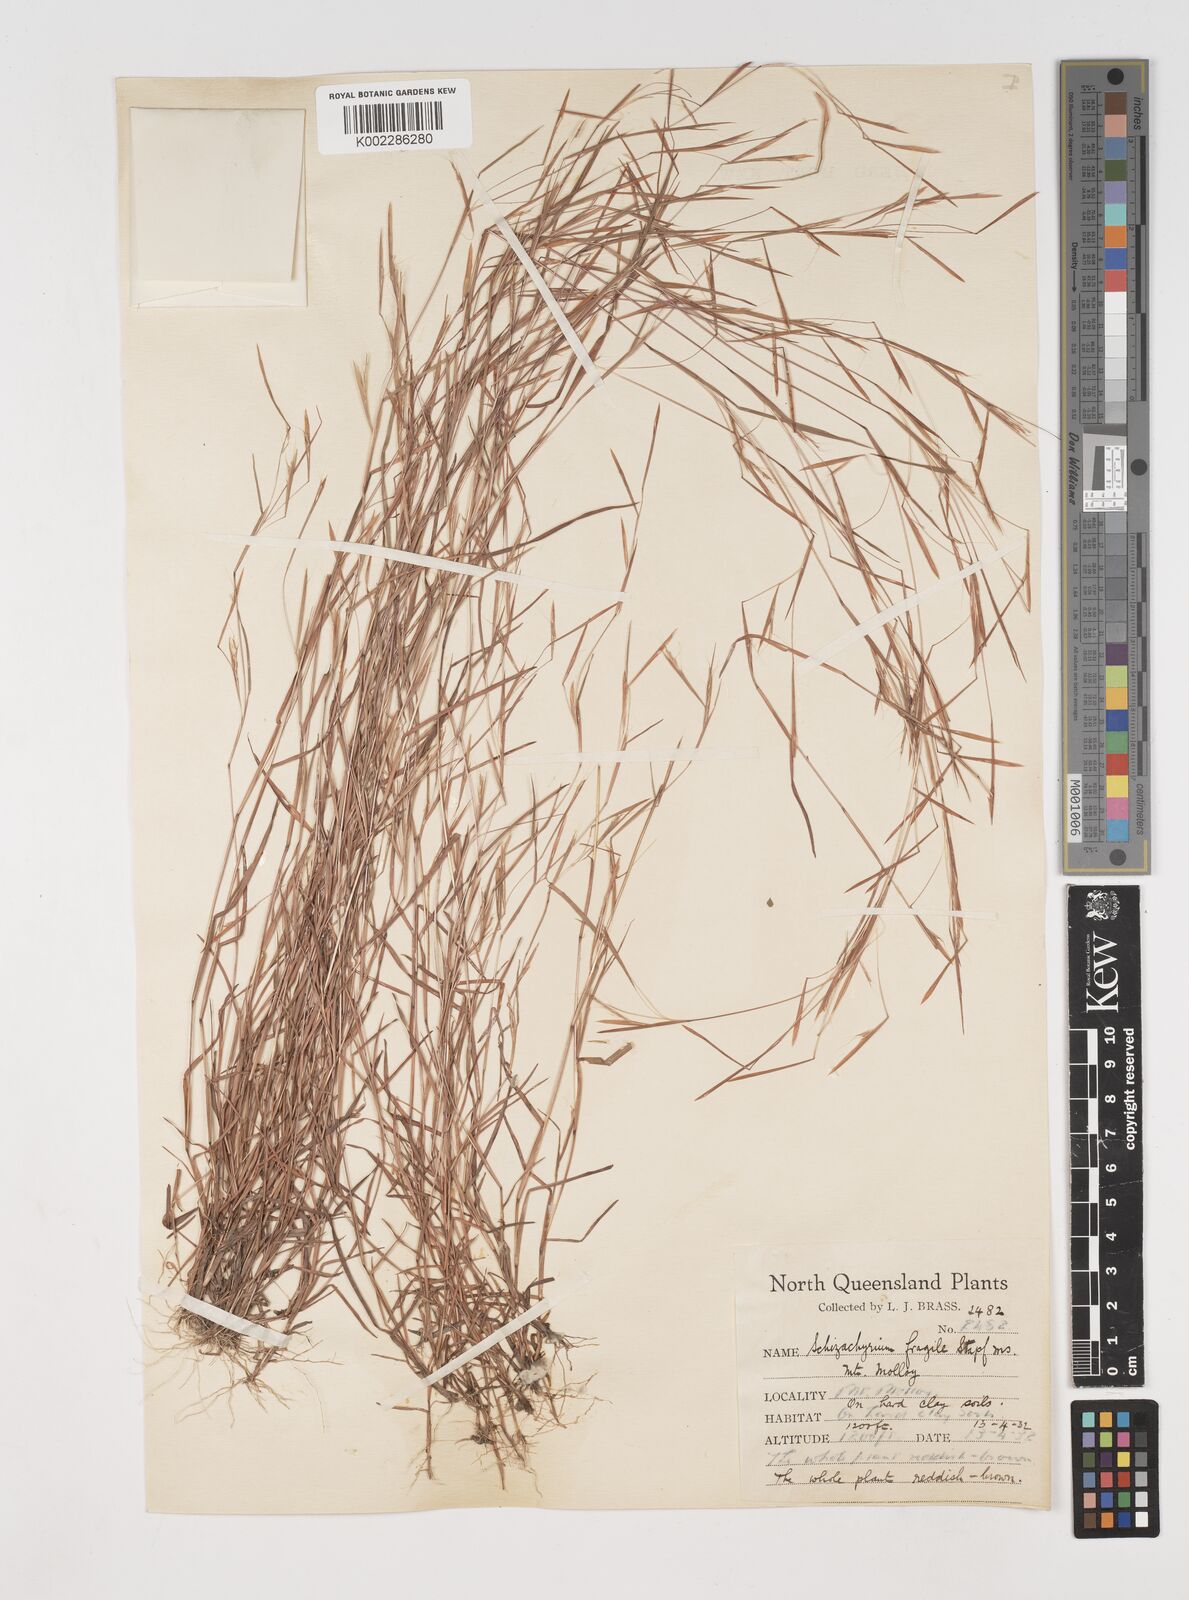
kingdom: Plantae
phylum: Tracheophyta
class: Liliopsida
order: Poales
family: Poaceae
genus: Schizachyrium
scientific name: Schizachyrium pseudeulalia
